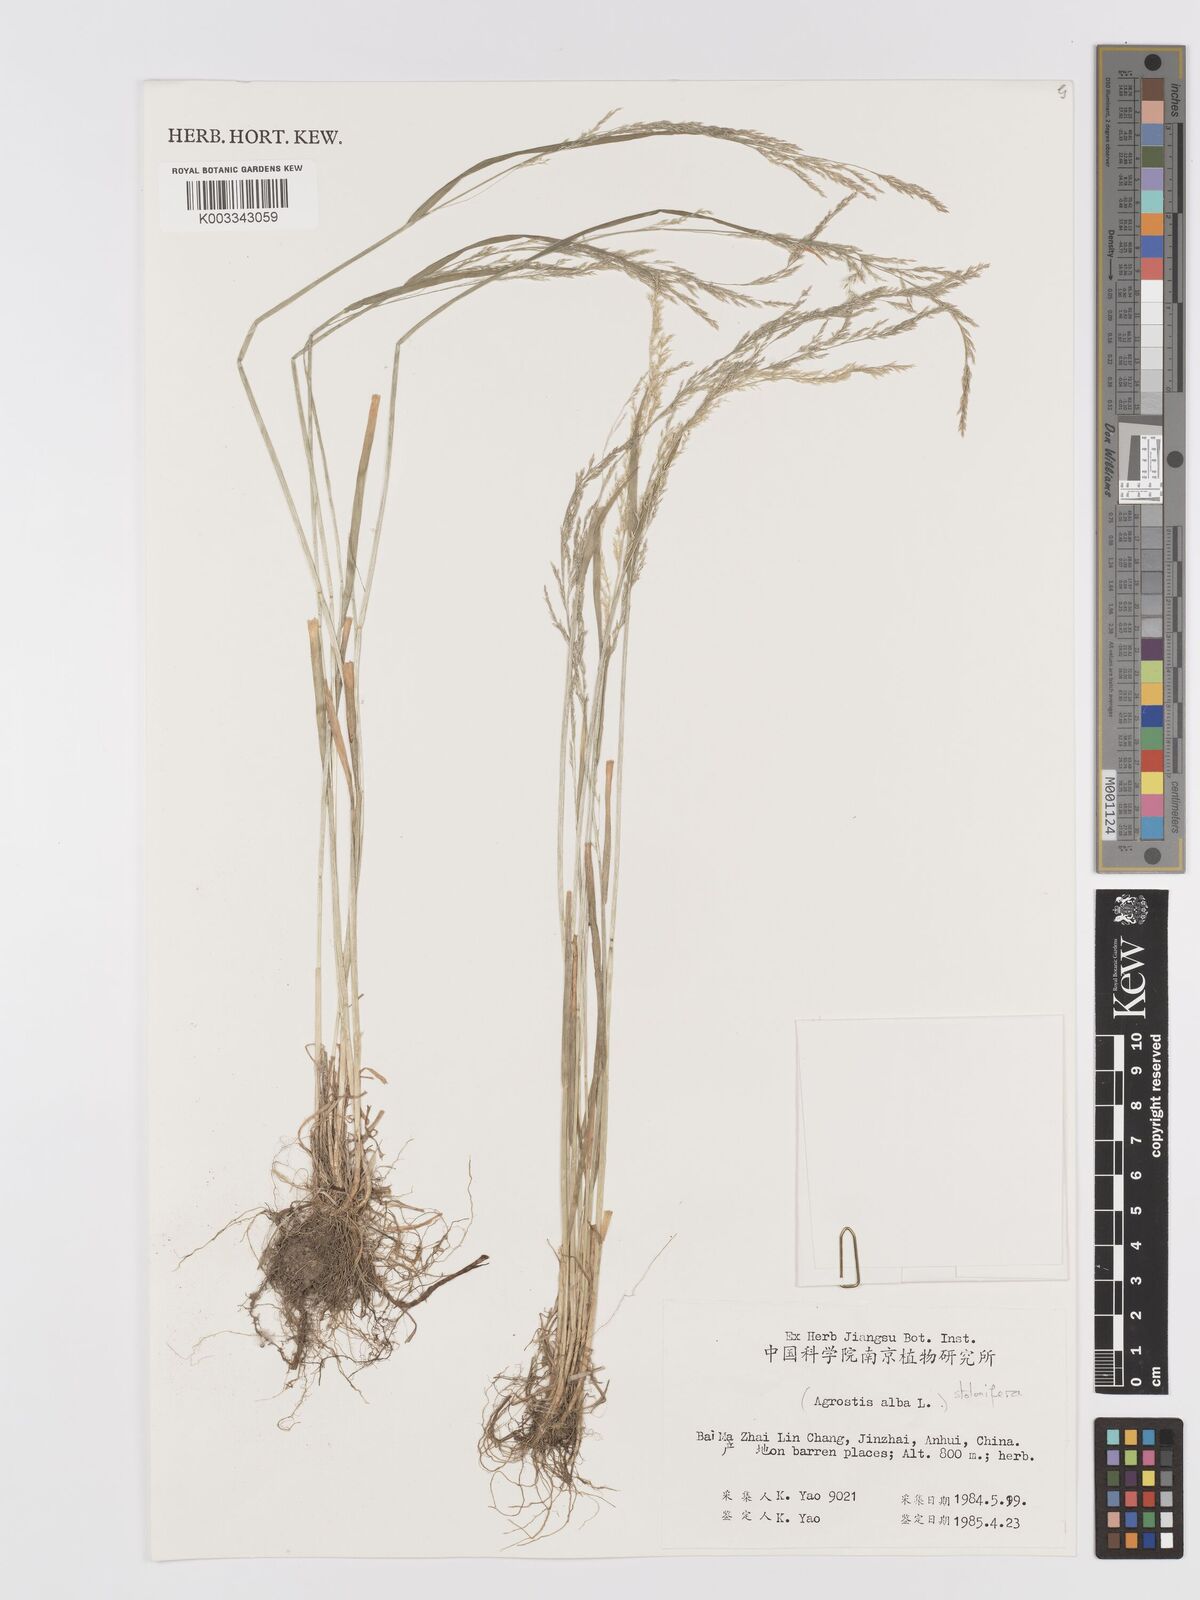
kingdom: Plantae
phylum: Tracheophyta
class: Liliopsida
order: Poales
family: Poaceae
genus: Agrostis
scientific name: Agrostis
